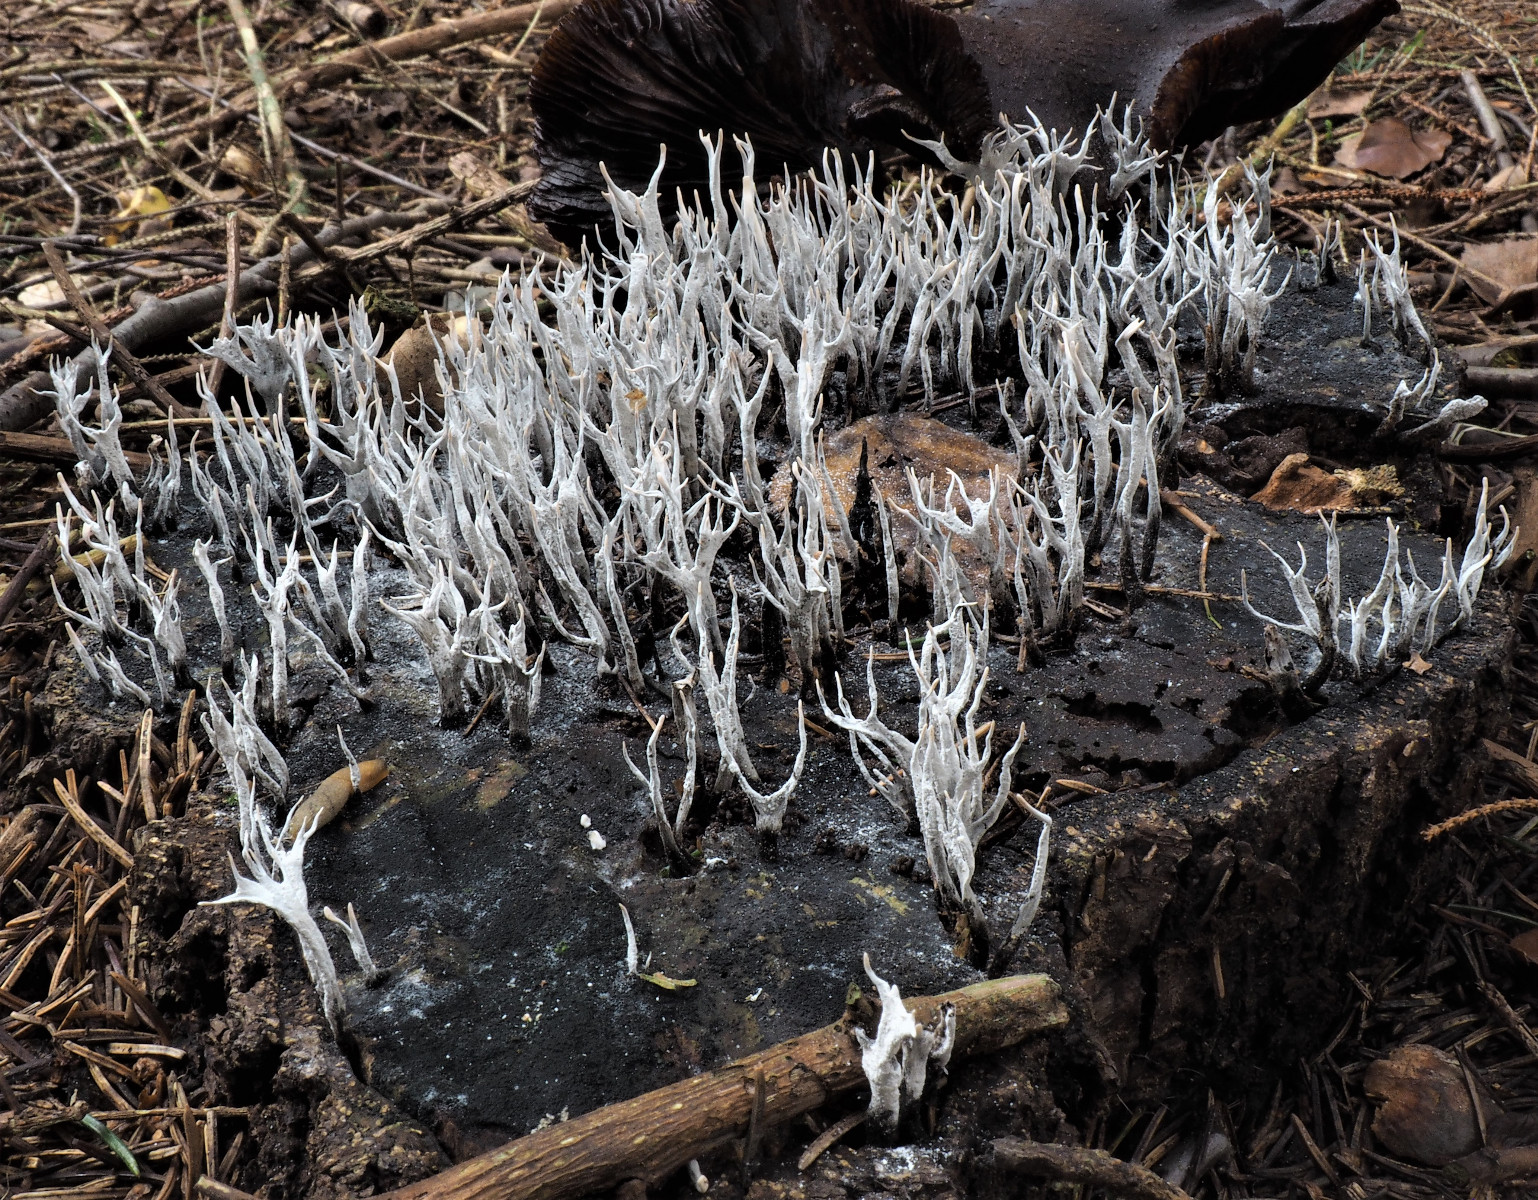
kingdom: Fungi
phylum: Ascomycota
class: Sordariomycetes
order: Xylariales
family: Xylariaceae
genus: Xylaria
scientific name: Xylaria hypoxylon
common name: grenet stødsvamp
